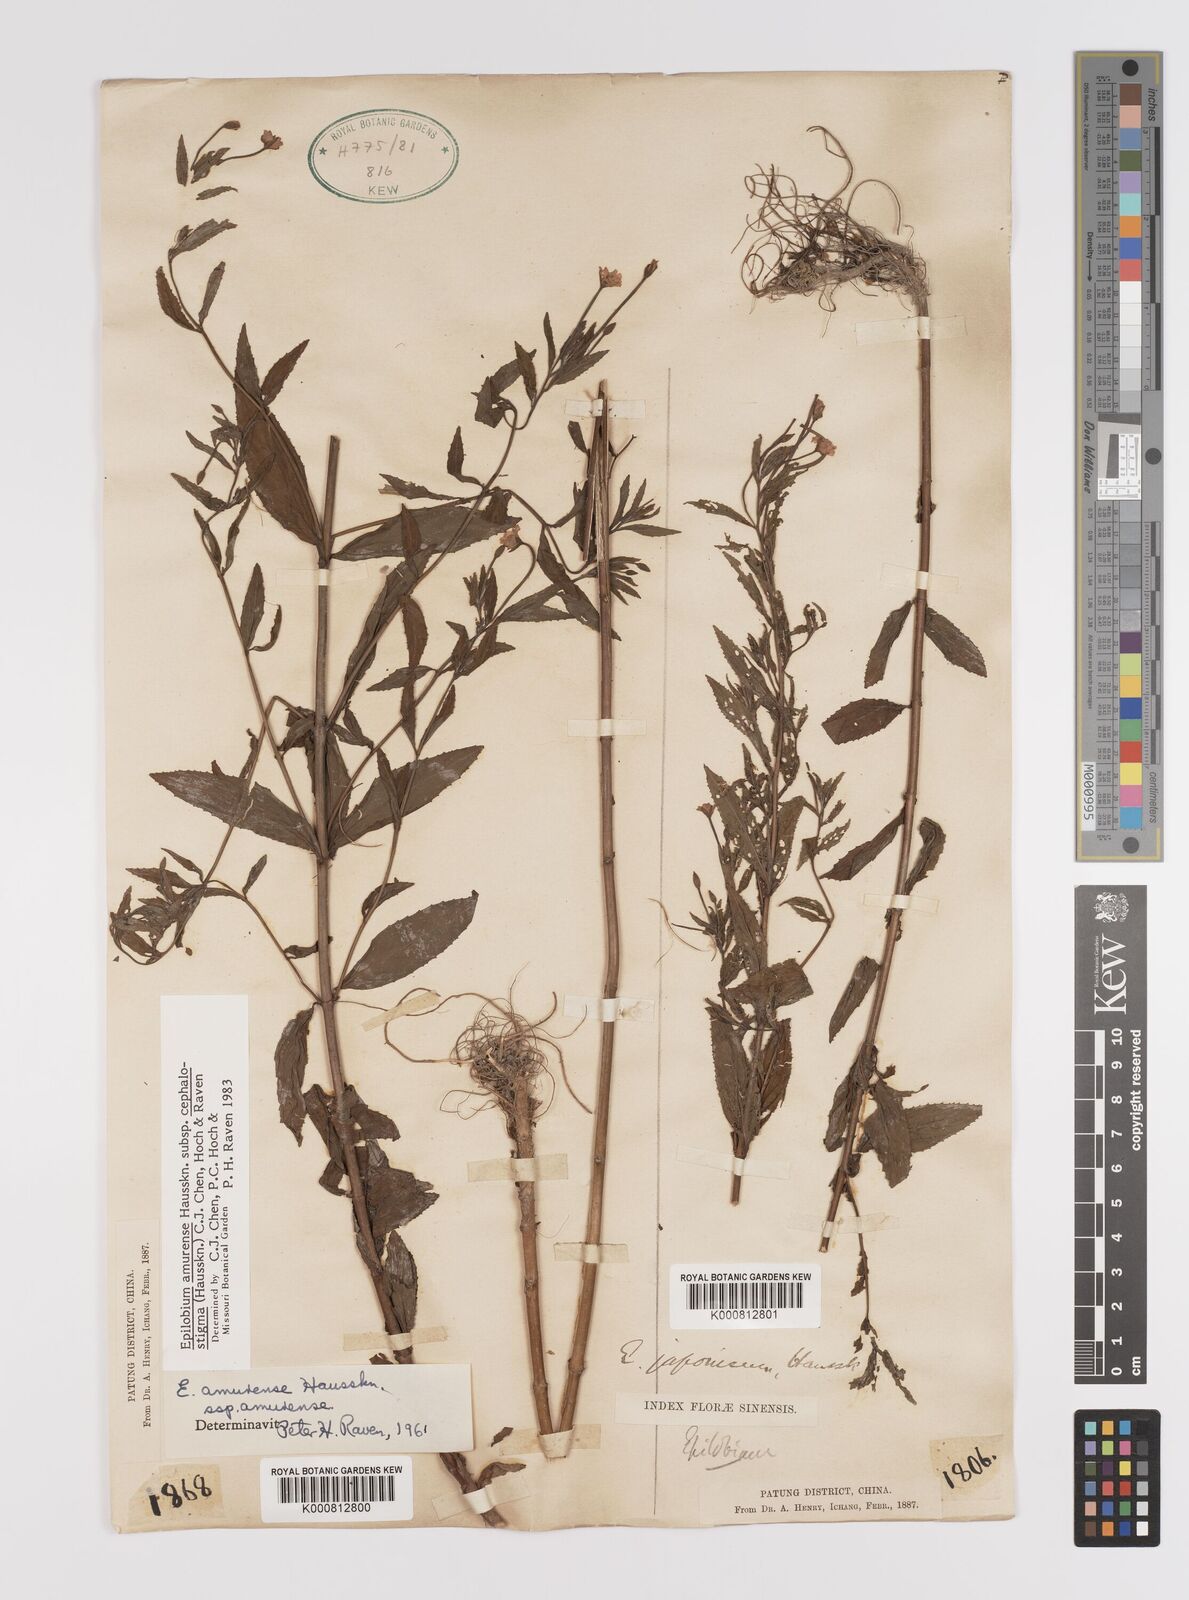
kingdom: Plantae
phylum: Tracheophyta
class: Magnoliopsida
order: Myrtales
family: Onagraceae
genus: Epilobium
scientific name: Epilobium amurense
